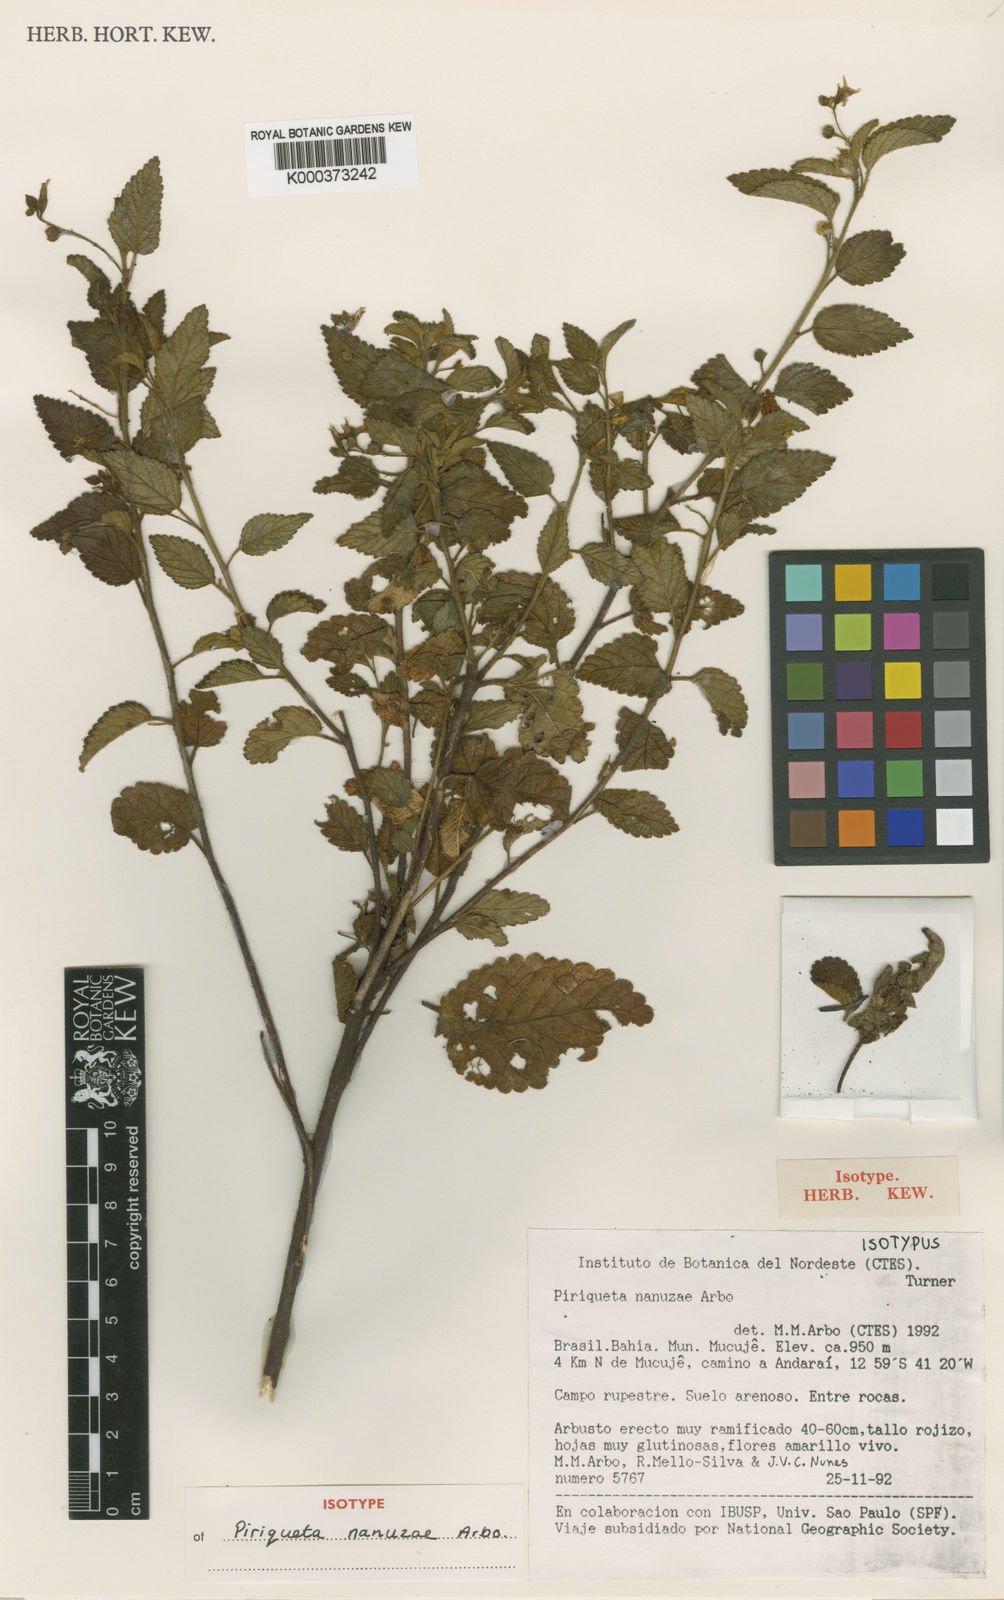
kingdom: Plantae
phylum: Tracheophyta
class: Magnoliopsida
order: Malpighiales
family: Turneraceae
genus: Piriqueta
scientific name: Piriqueta nanuzae
